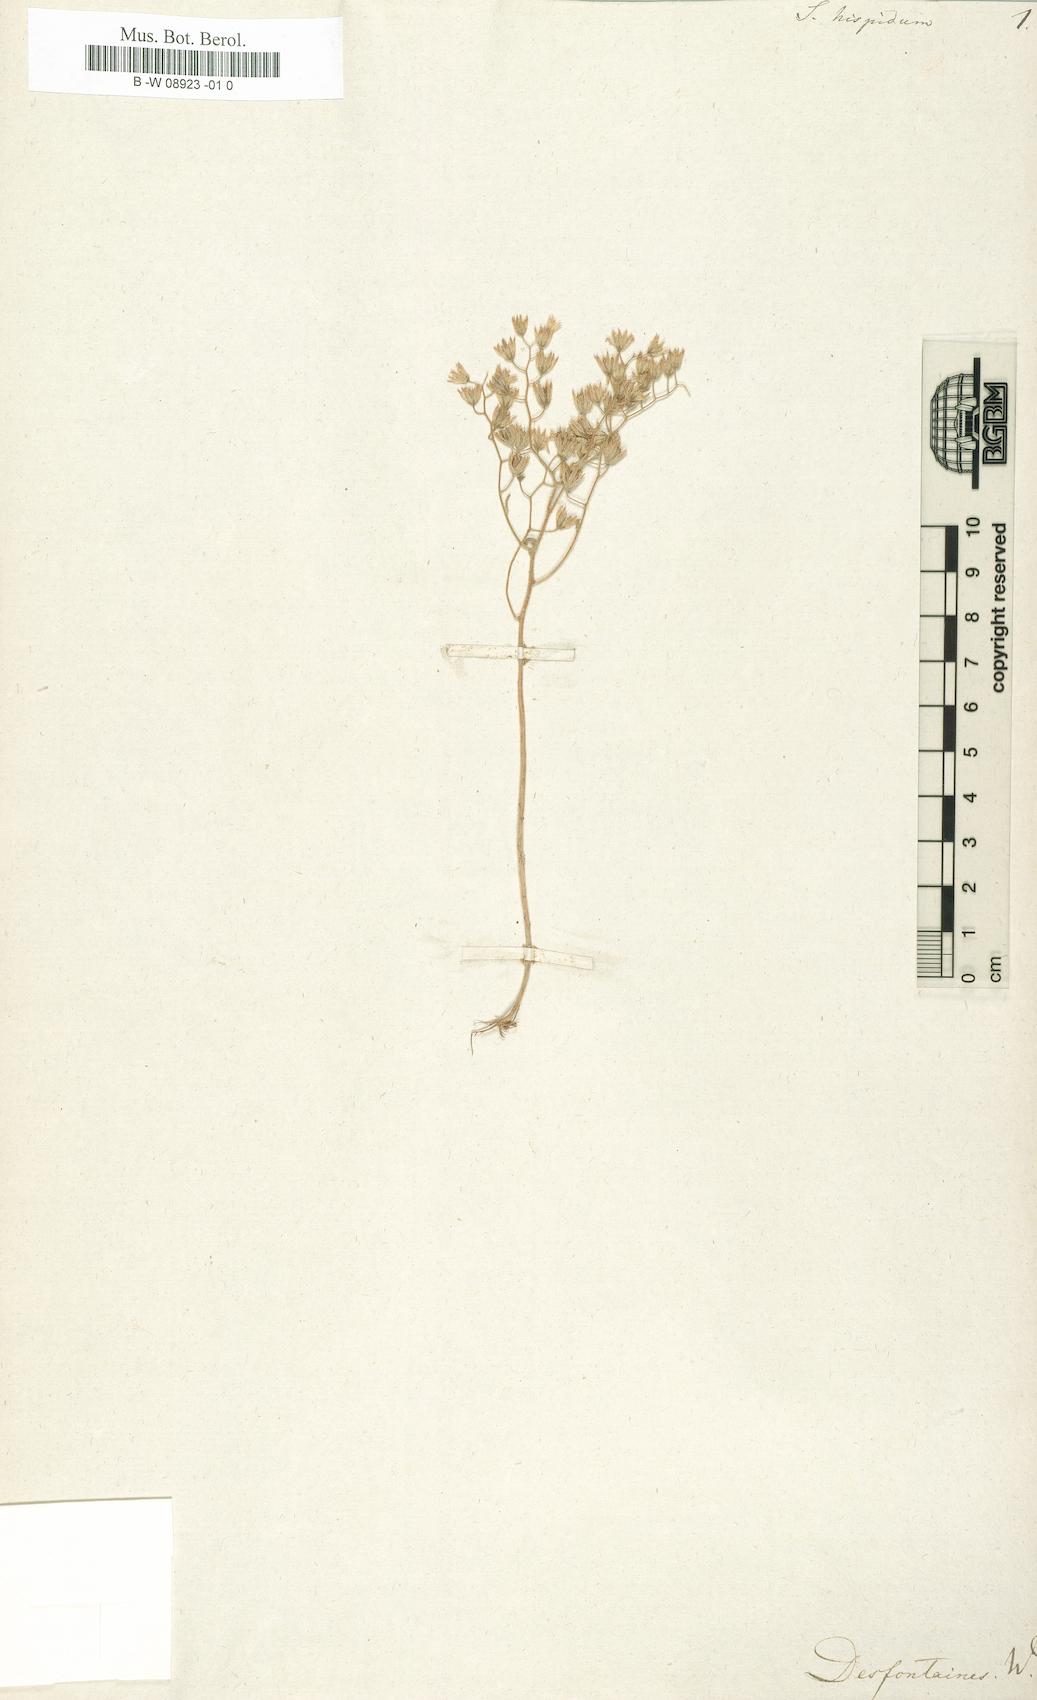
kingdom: Plantae
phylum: Tracheophyta
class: Magnoliopsida
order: Saxifragales
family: Crassulaceae
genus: Sedum
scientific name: Sedum
